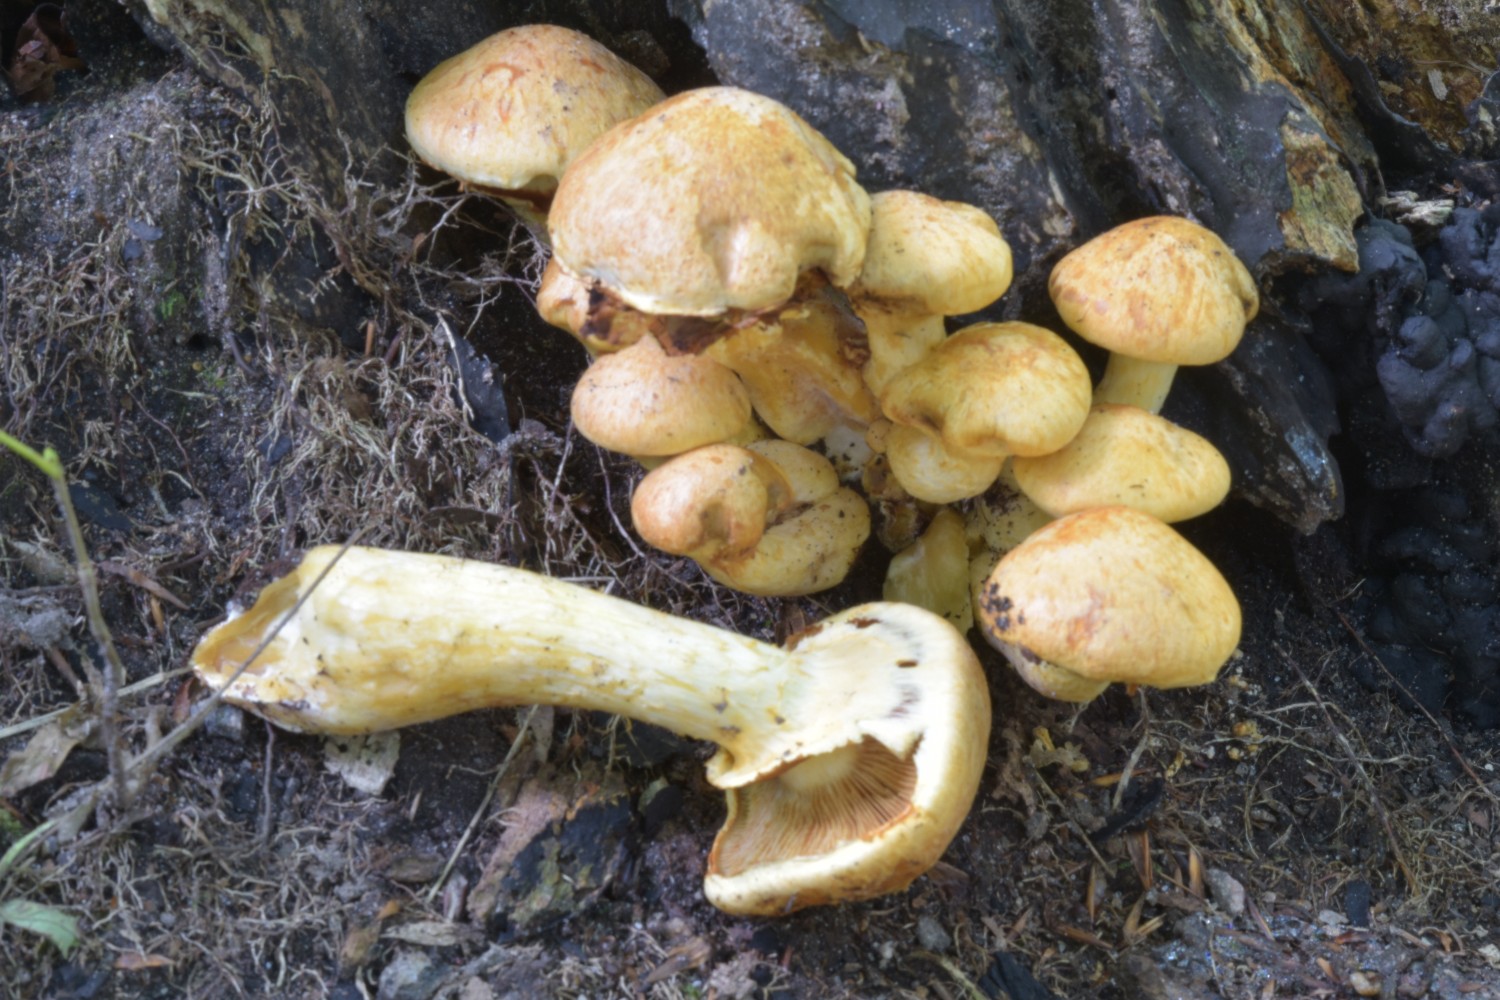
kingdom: Fungi
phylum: Basidiomycota
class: Agaricomycetes
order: Agaricales
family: Hymenogastraceae
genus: Gymnopilus
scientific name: Gymnopilus spectabilis
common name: fibret flammehat
